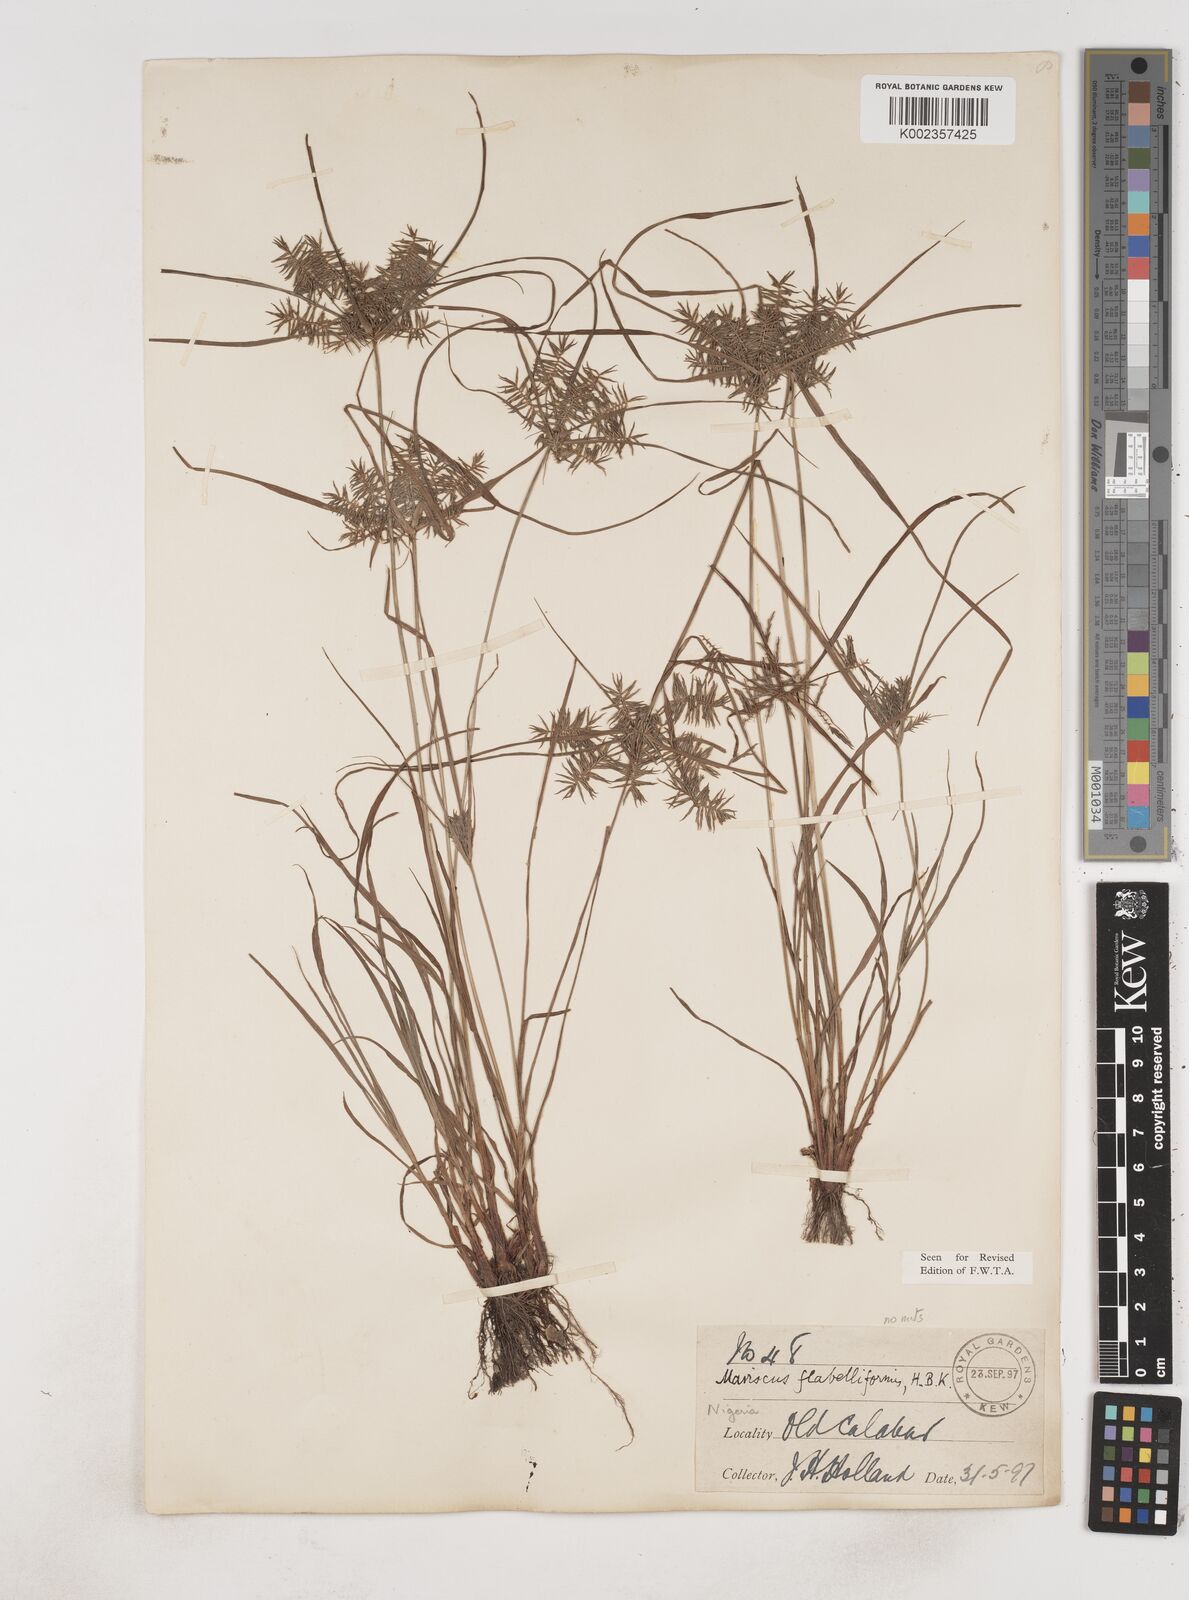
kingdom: Plantae
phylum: Tracheophyta
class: Liliopsida
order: Poales
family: Cyperaceae
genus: Cyperus
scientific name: Cyperus tenuis
